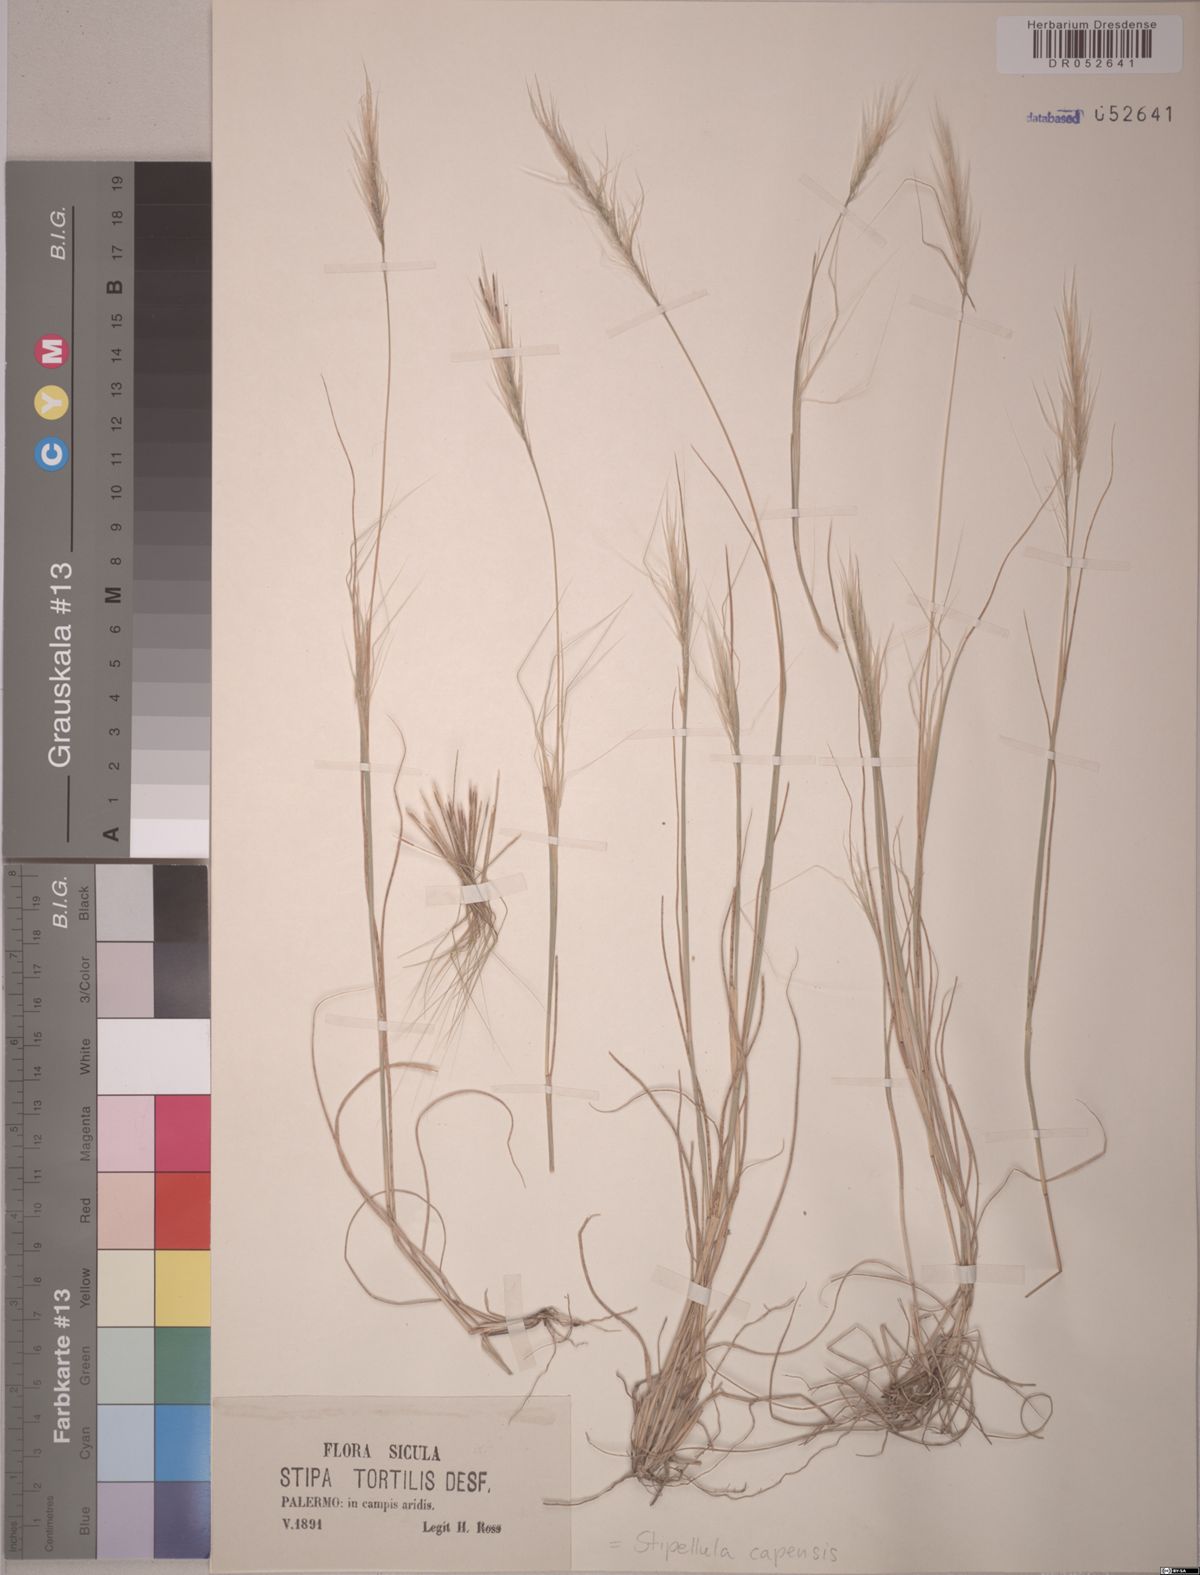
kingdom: Plantae
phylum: Tracheophyta
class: Liliopsida
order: Poales
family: Poaceae
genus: Stipellula
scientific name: Stipellula capensis
